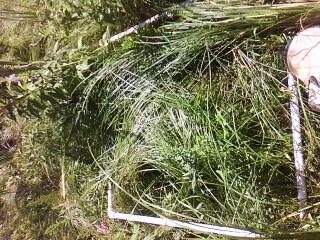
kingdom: Plantae
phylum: Tracheophyta
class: Polypodiopsida
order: Polypodiales
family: Thelypteridaceae
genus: Thelypteris
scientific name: Thelypteris palustris
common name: Marsh fern
